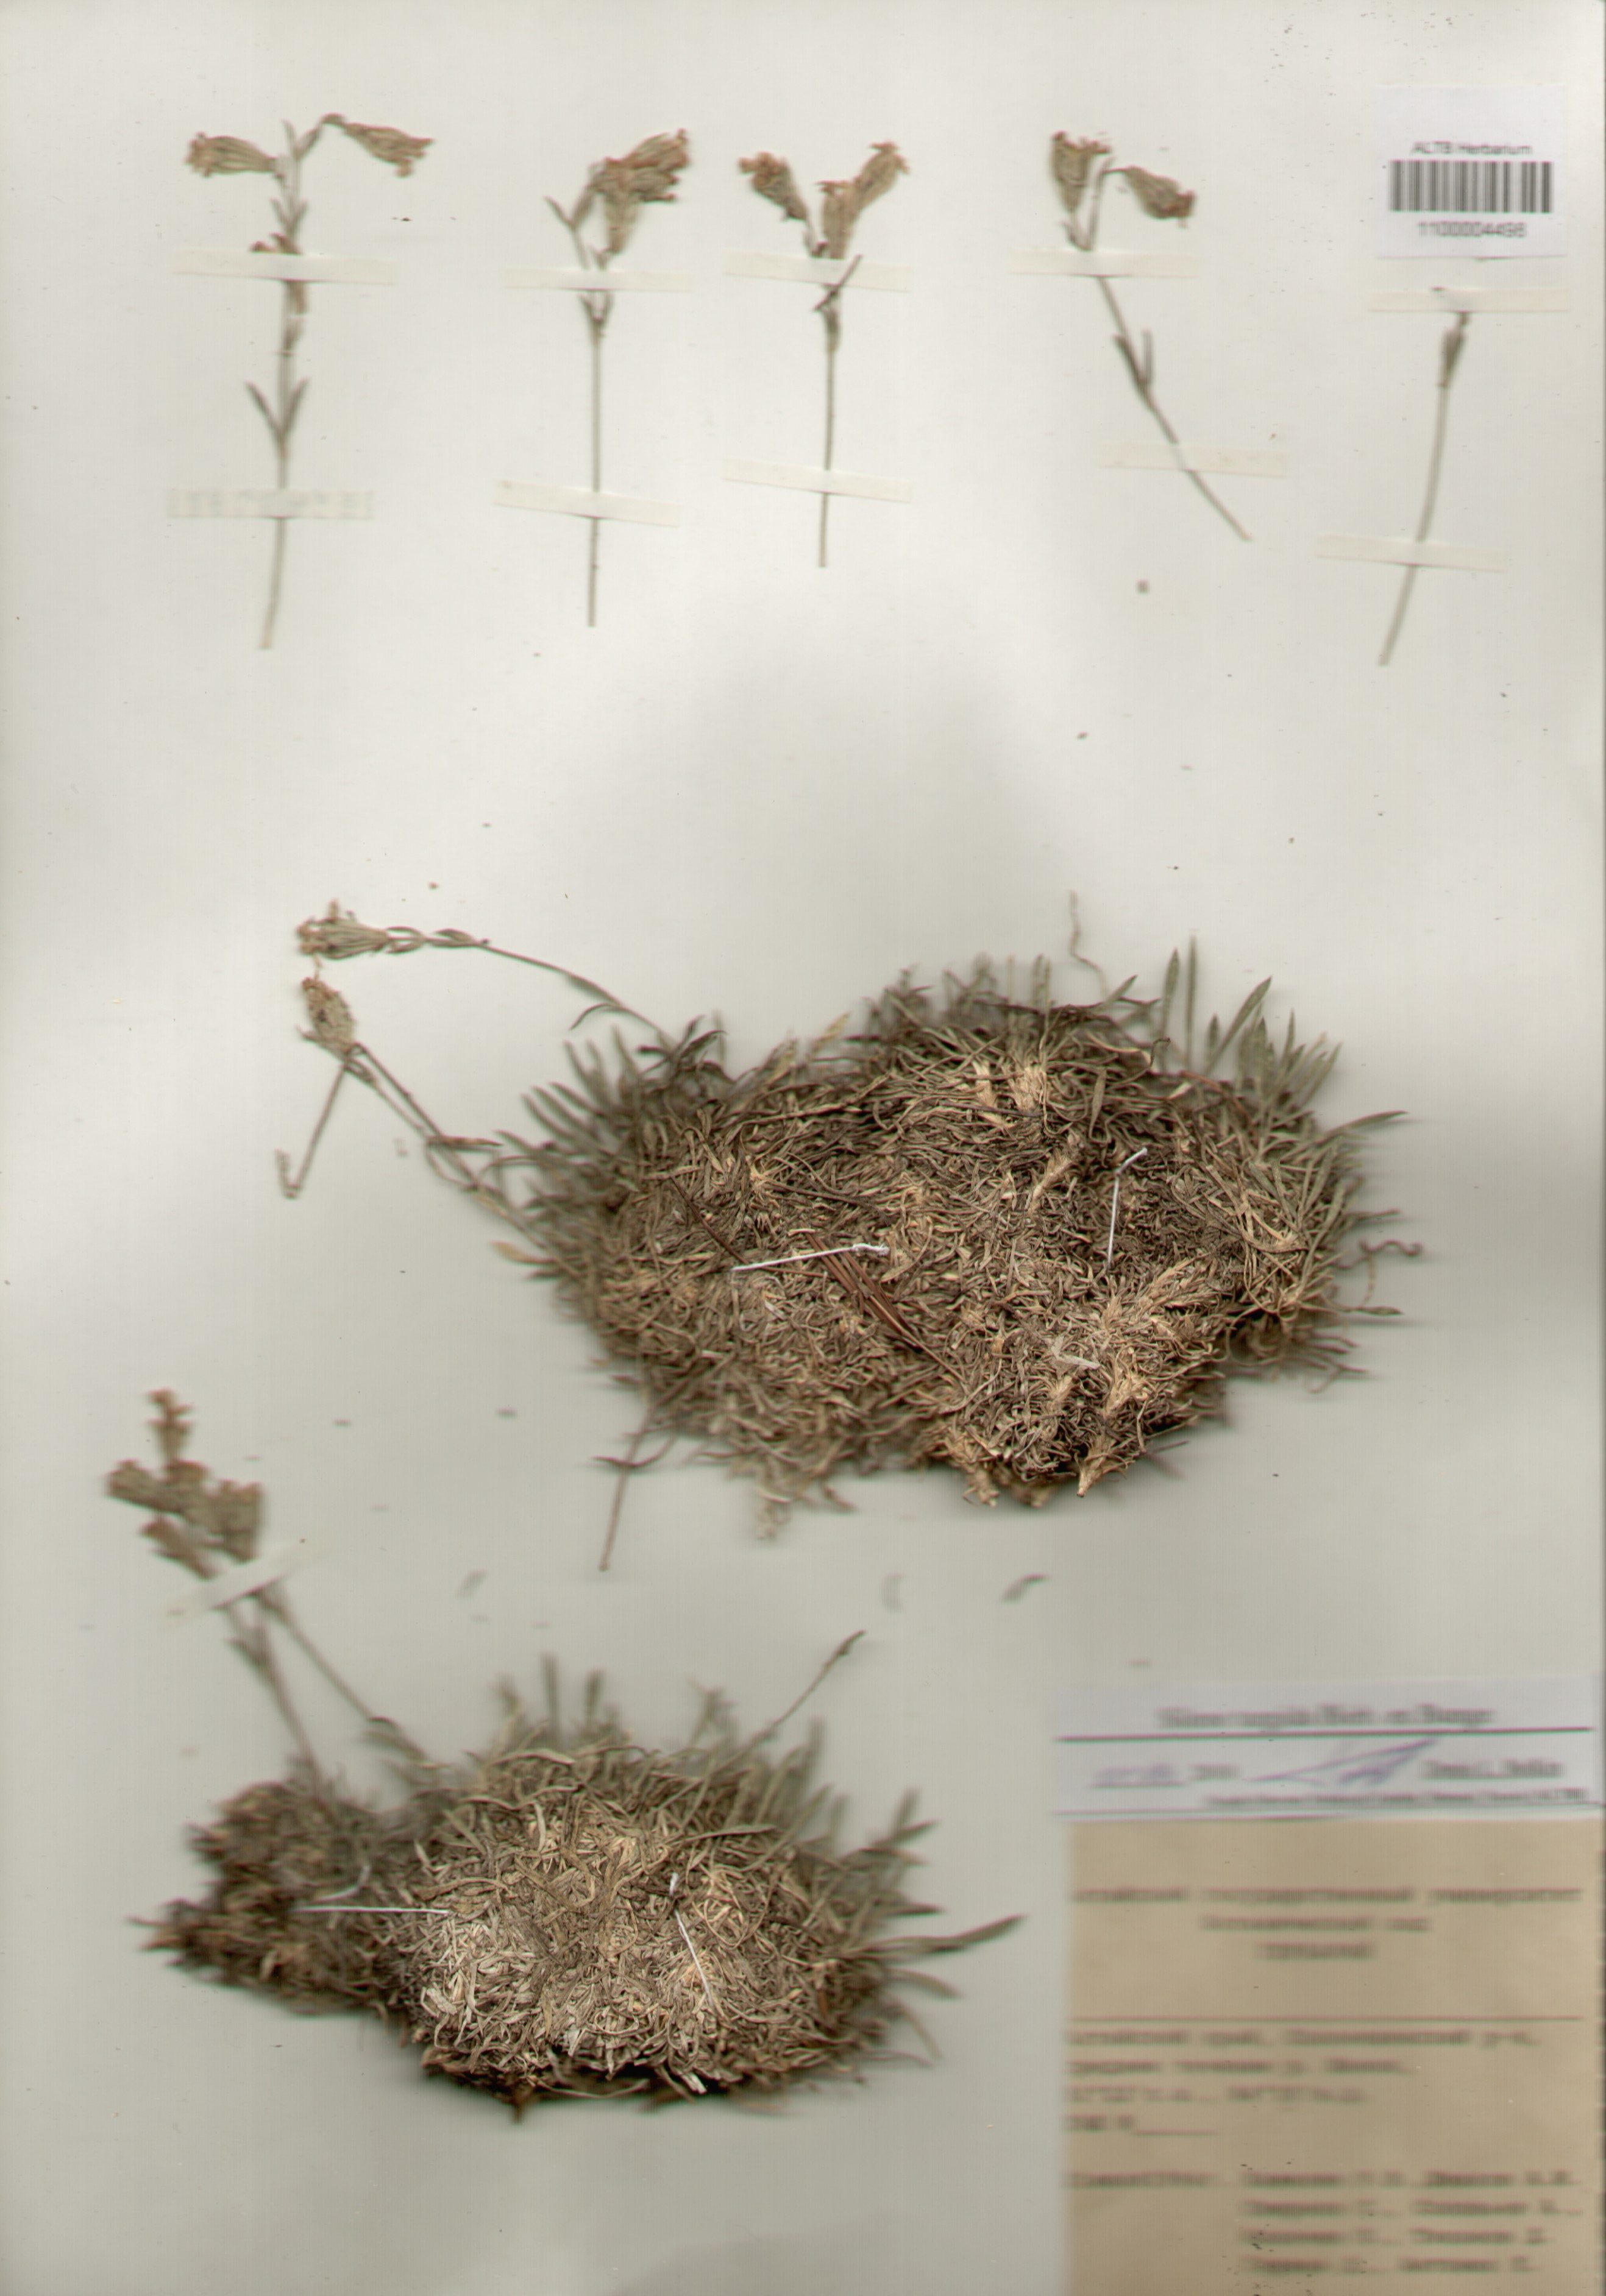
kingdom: Plantae
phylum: Tracheophyta
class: Magnoliopsida
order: Caryophyllales
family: Caryophyllaceae
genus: Silene
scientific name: Silene turgida
